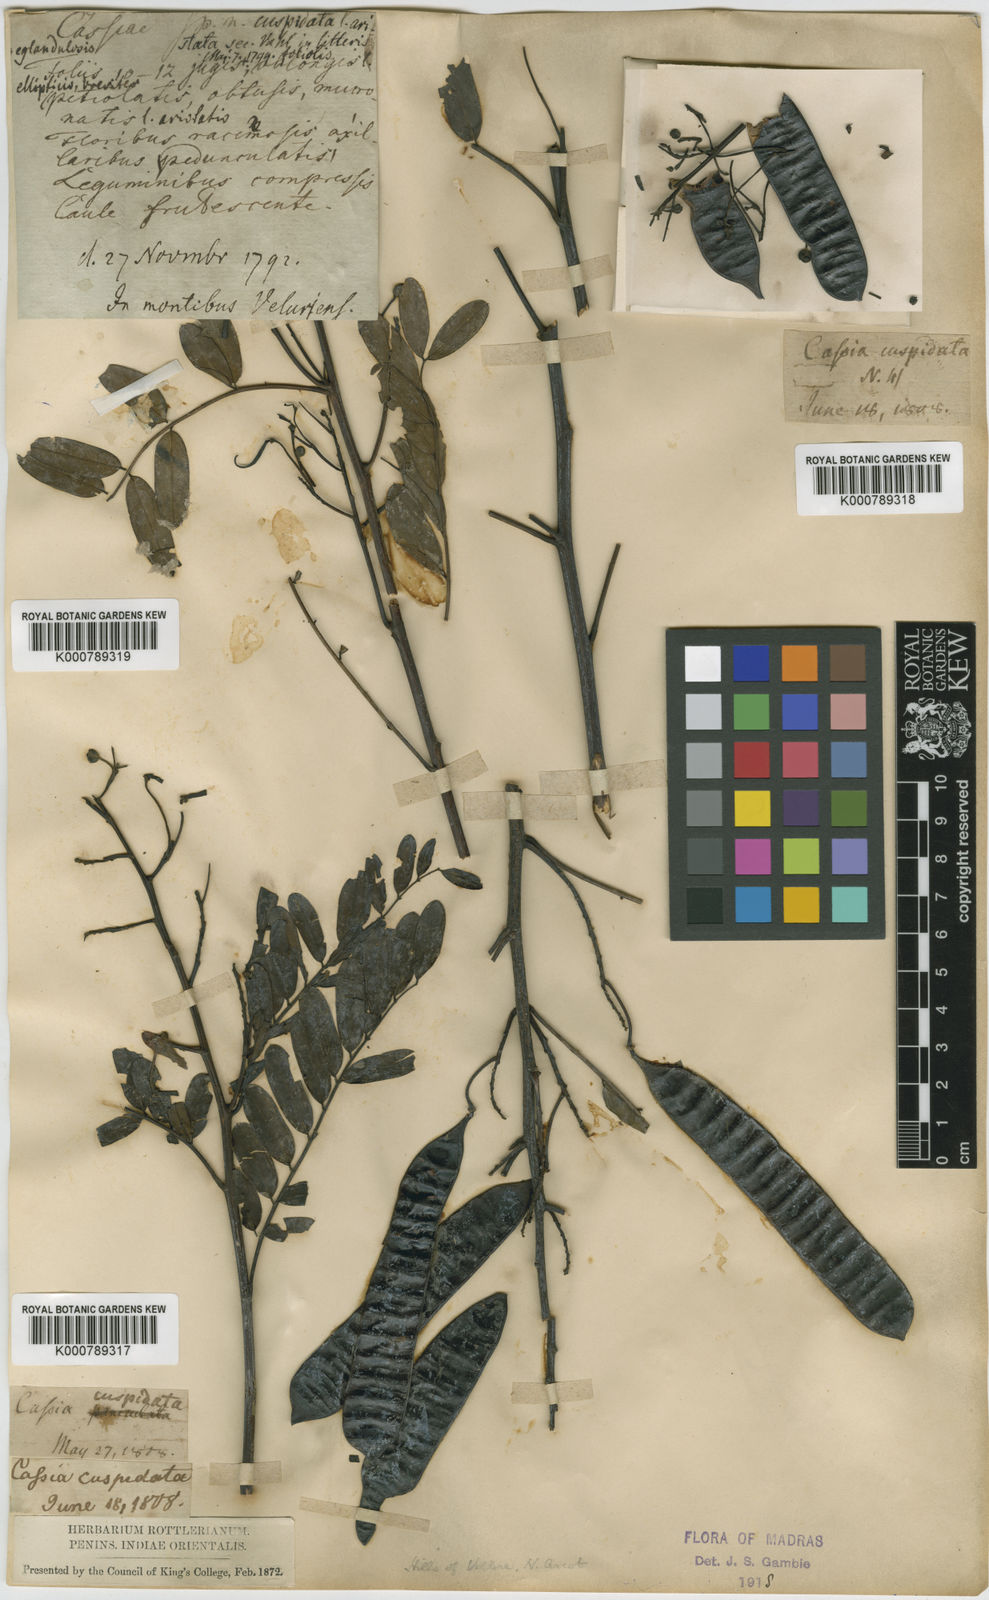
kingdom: Plantae
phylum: Tracheophyta
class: Magnoliopsida
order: Fabales
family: Fabaceae
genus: Cassia
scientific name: Cassia
